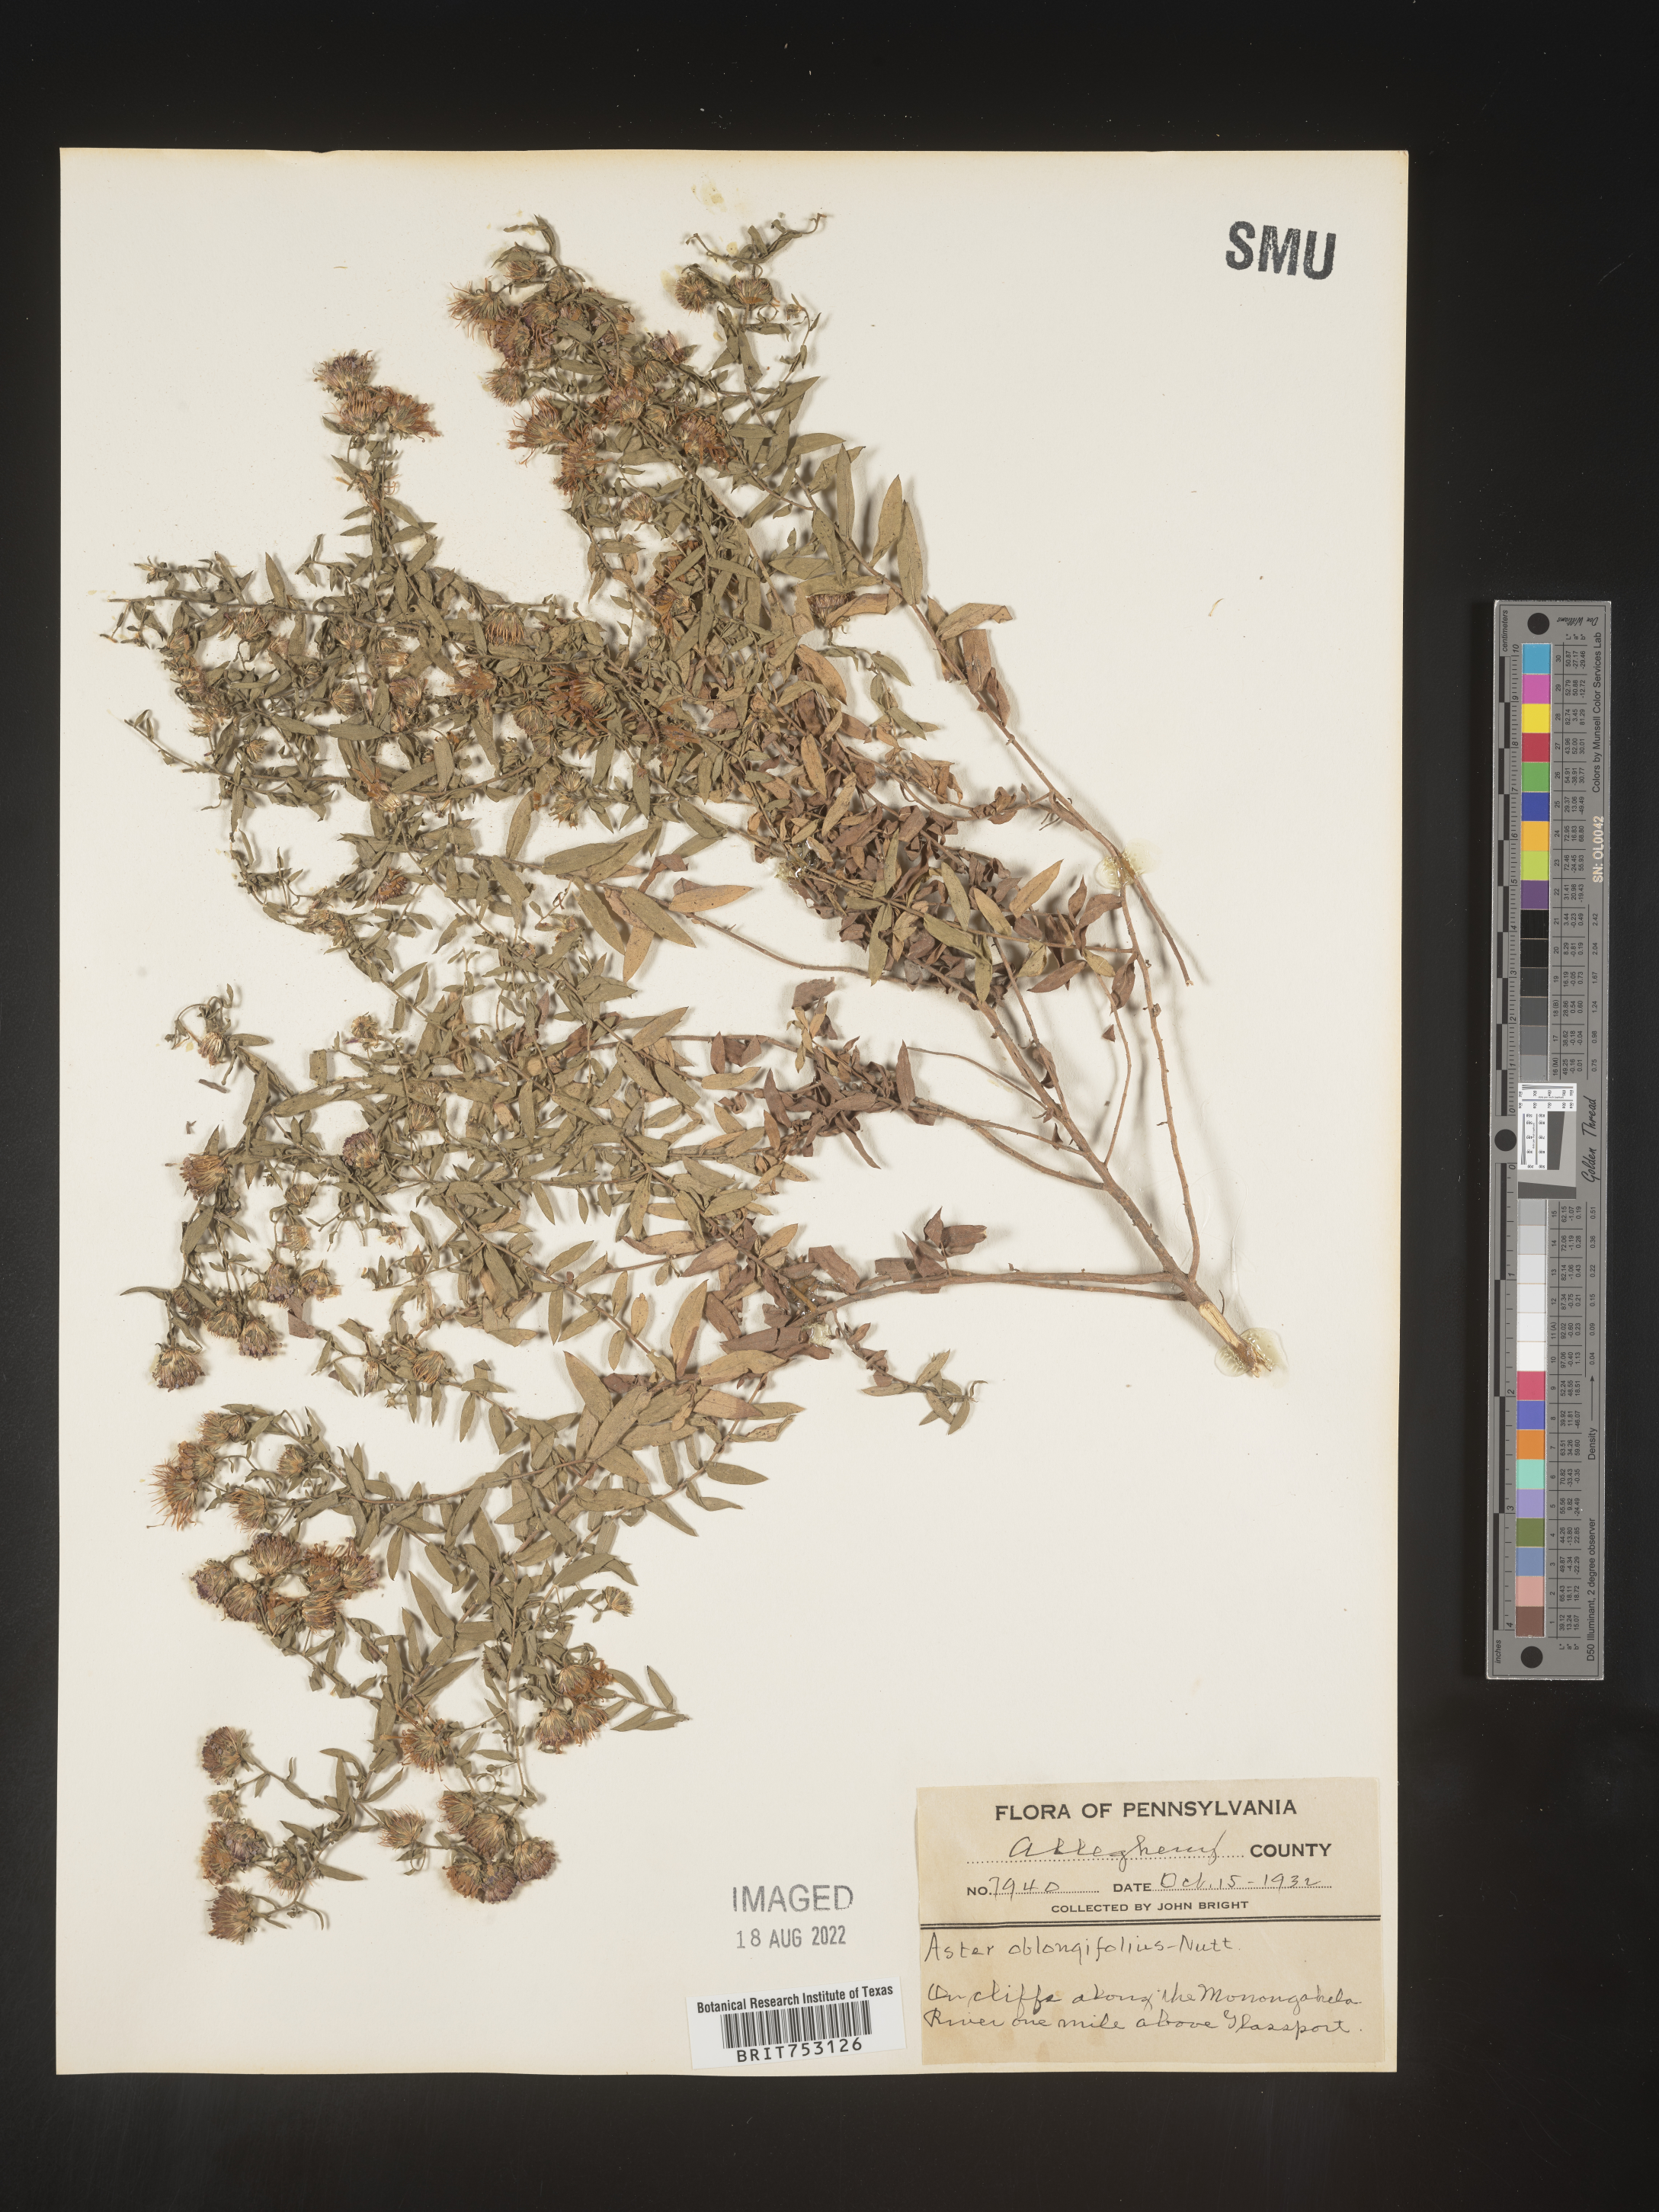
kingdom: Plantae
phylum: Tracheophyta
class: Magnoliopsida
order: Asterales
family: Asteraceae
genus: Symphyotrichum
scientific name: Symphyotrichum oblongifolium
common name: Aromatic aster
